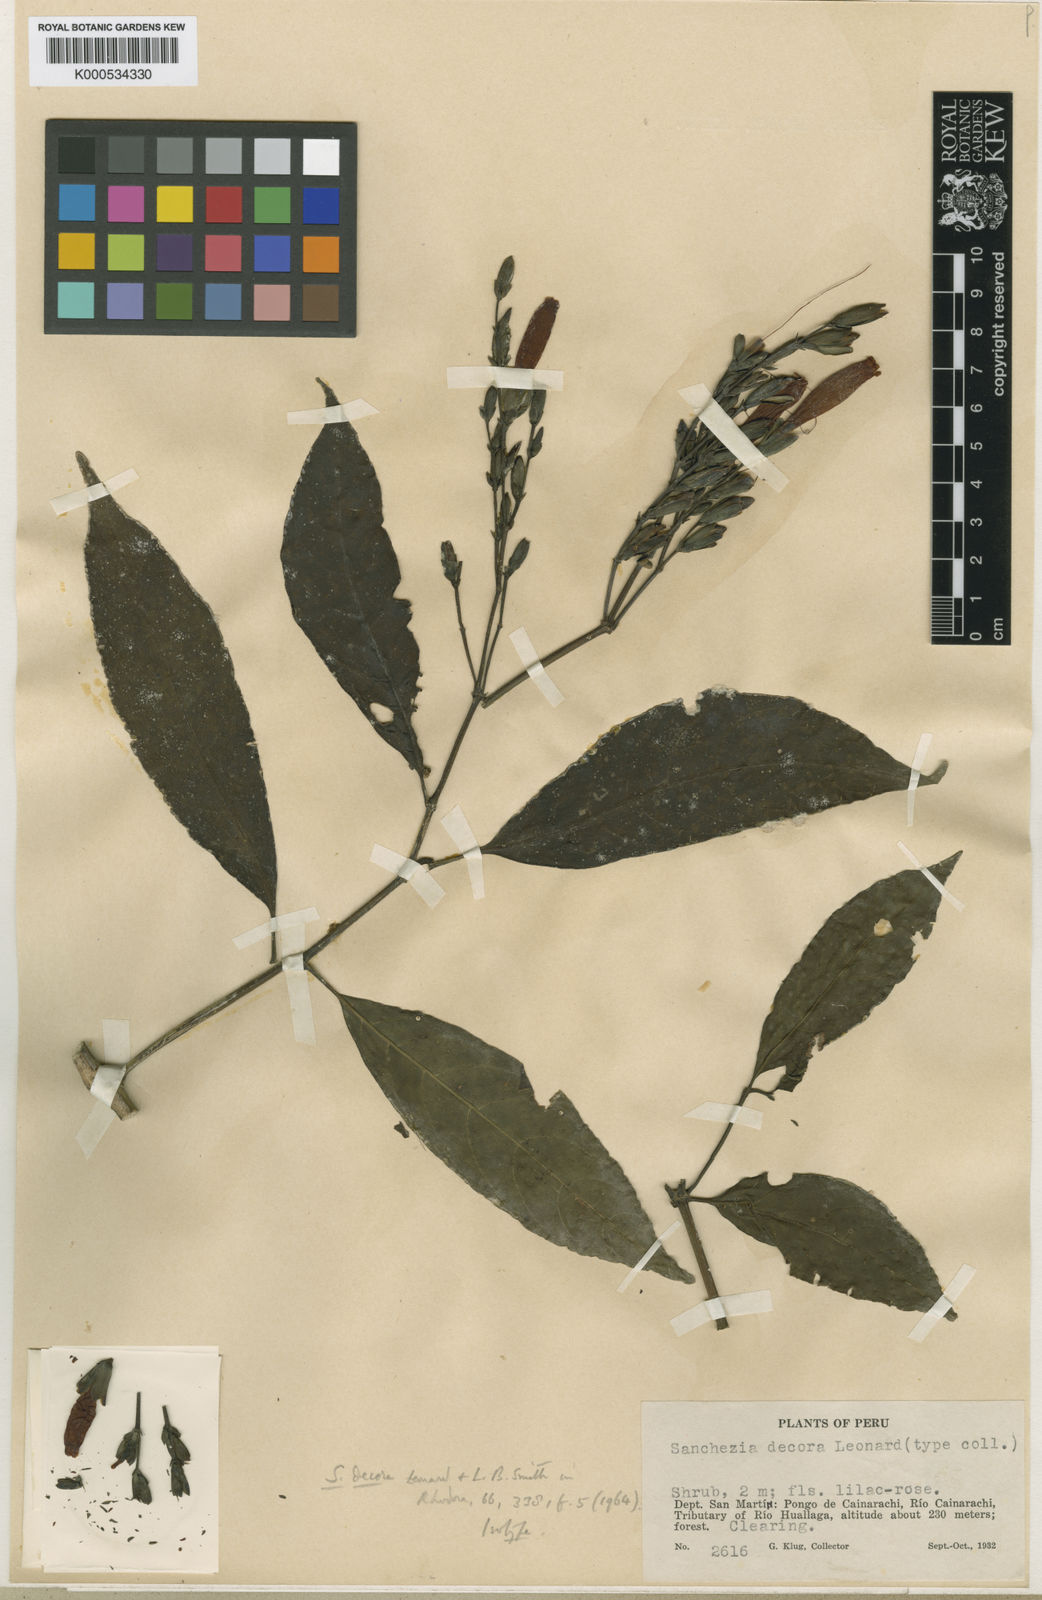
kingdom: Plantae
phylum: Tracheophyta
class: Magnoliopsida
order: Lamiales
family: Acanthaceae
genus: Sanchezia
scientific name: Sanchezia scandens
